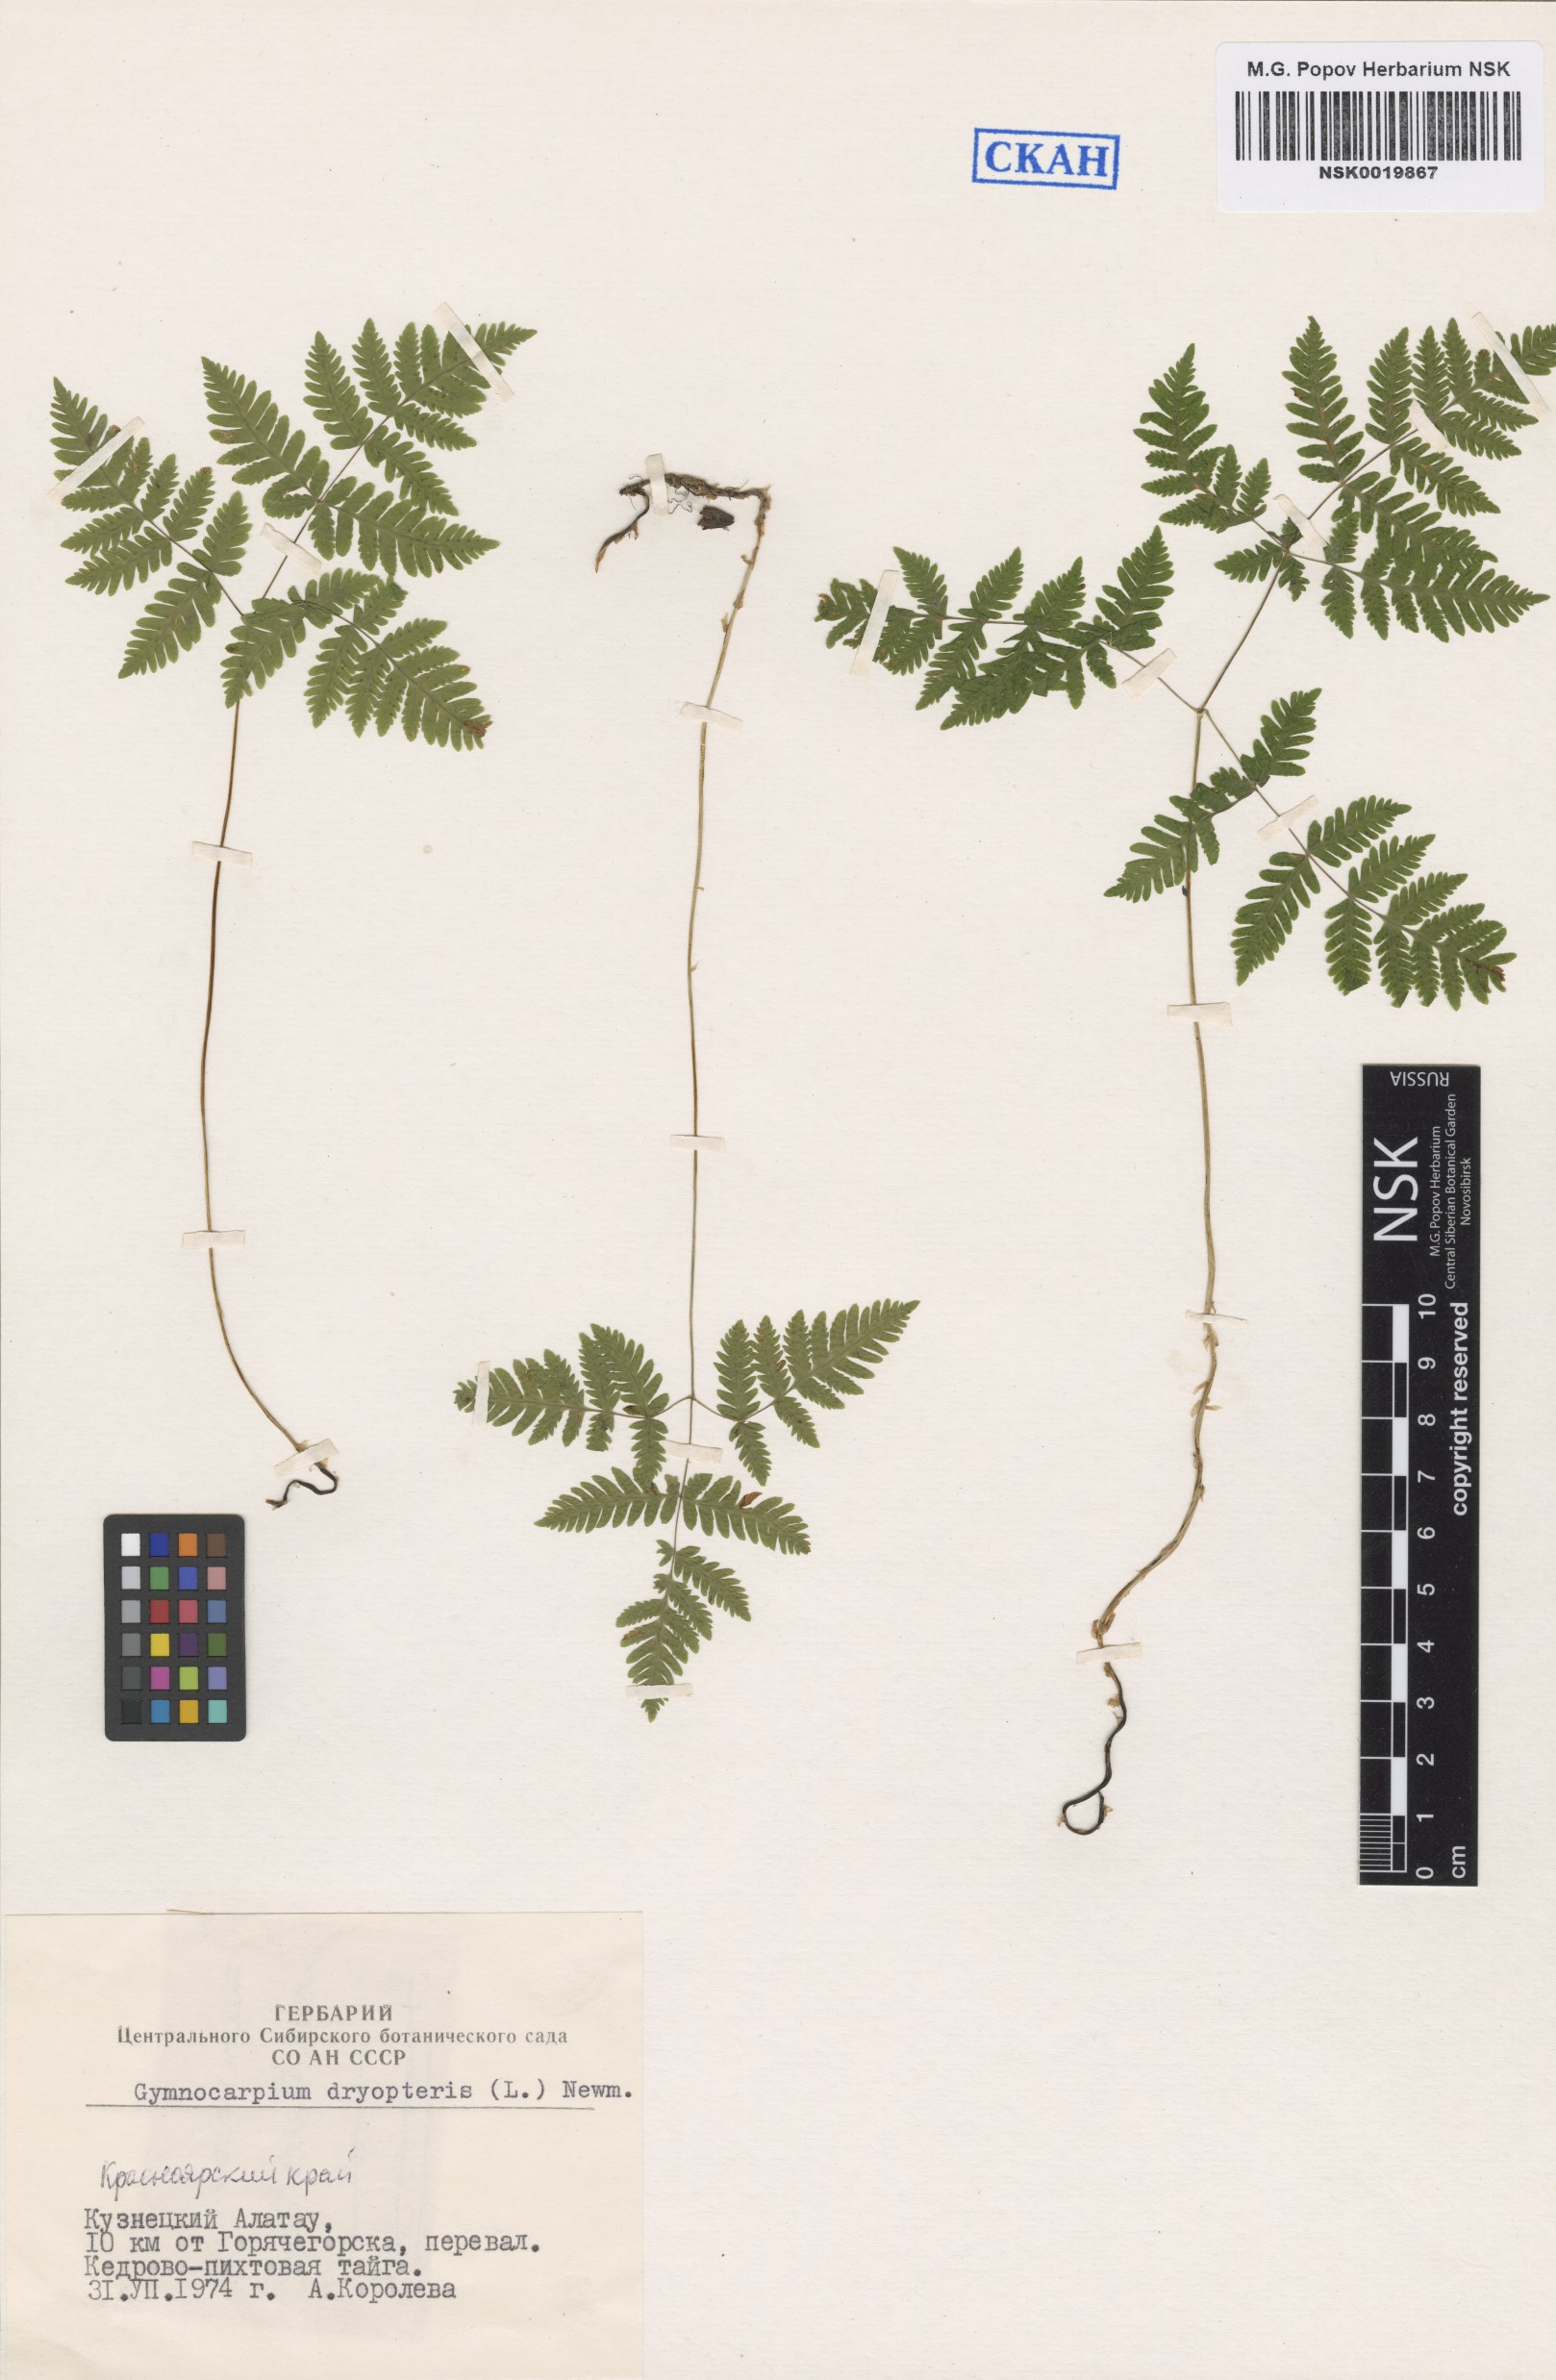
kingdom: Plantae
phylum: Tracheophyta
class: Polypodiopsida
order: Polypodiales
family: Cystopteridaceae
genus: Gymnocarpium
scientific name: Gymnocarpium dryopteris
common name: Oak fern
